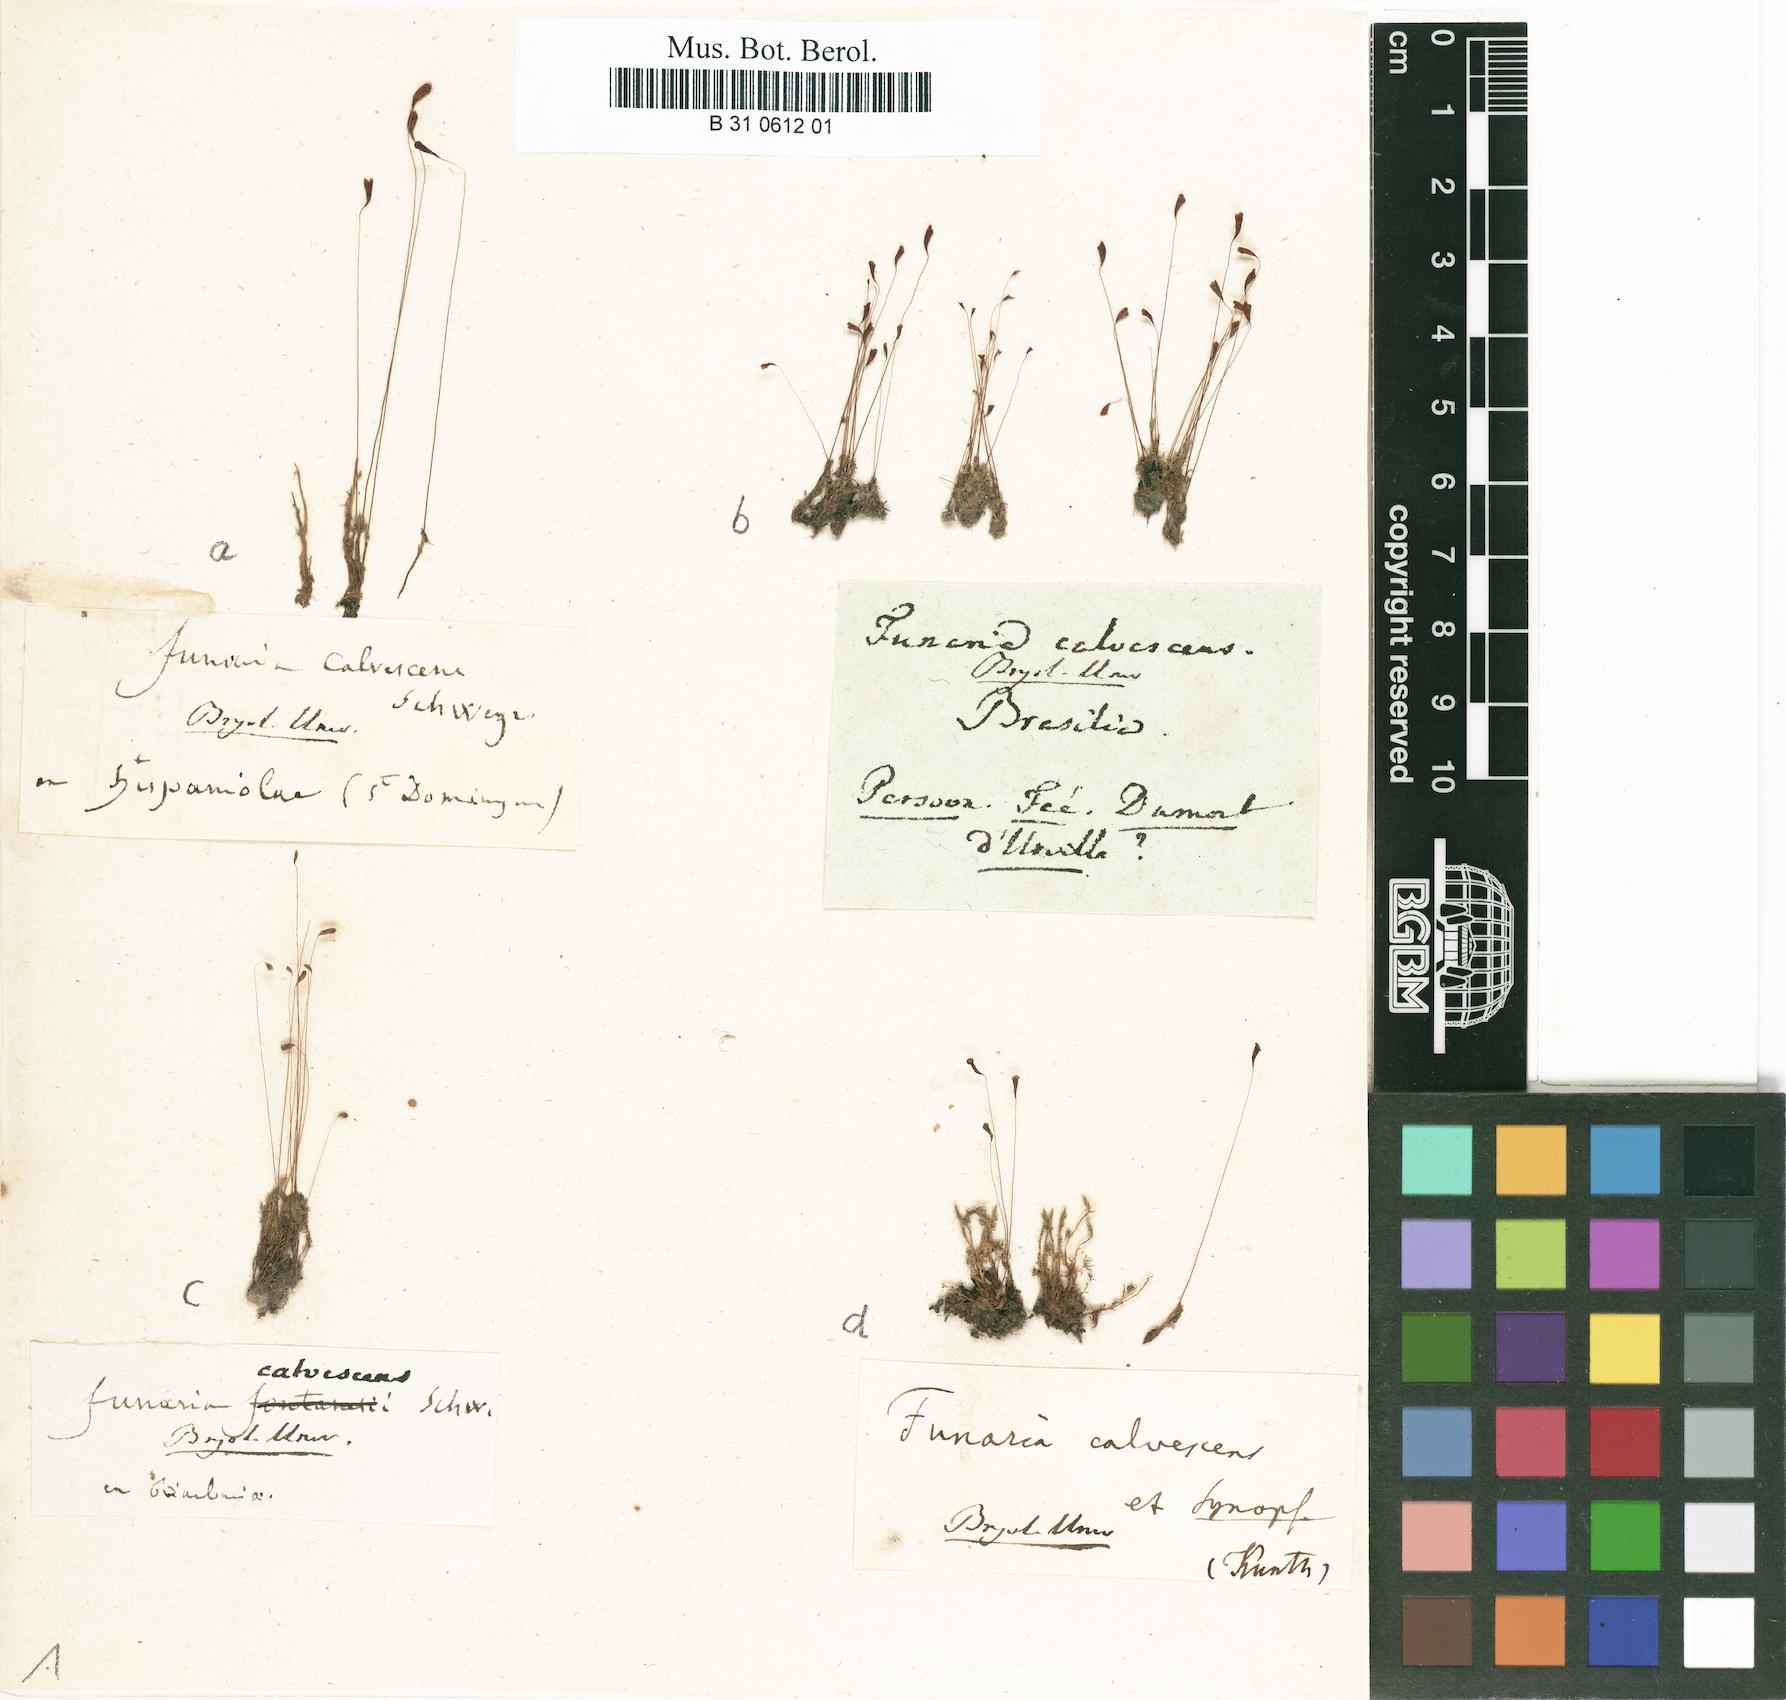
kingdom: Plantae
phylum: Bryophyta
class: Bryopsida
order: Funariales
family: Funariaceae
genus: Funaria
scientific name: Funaria calvescens
